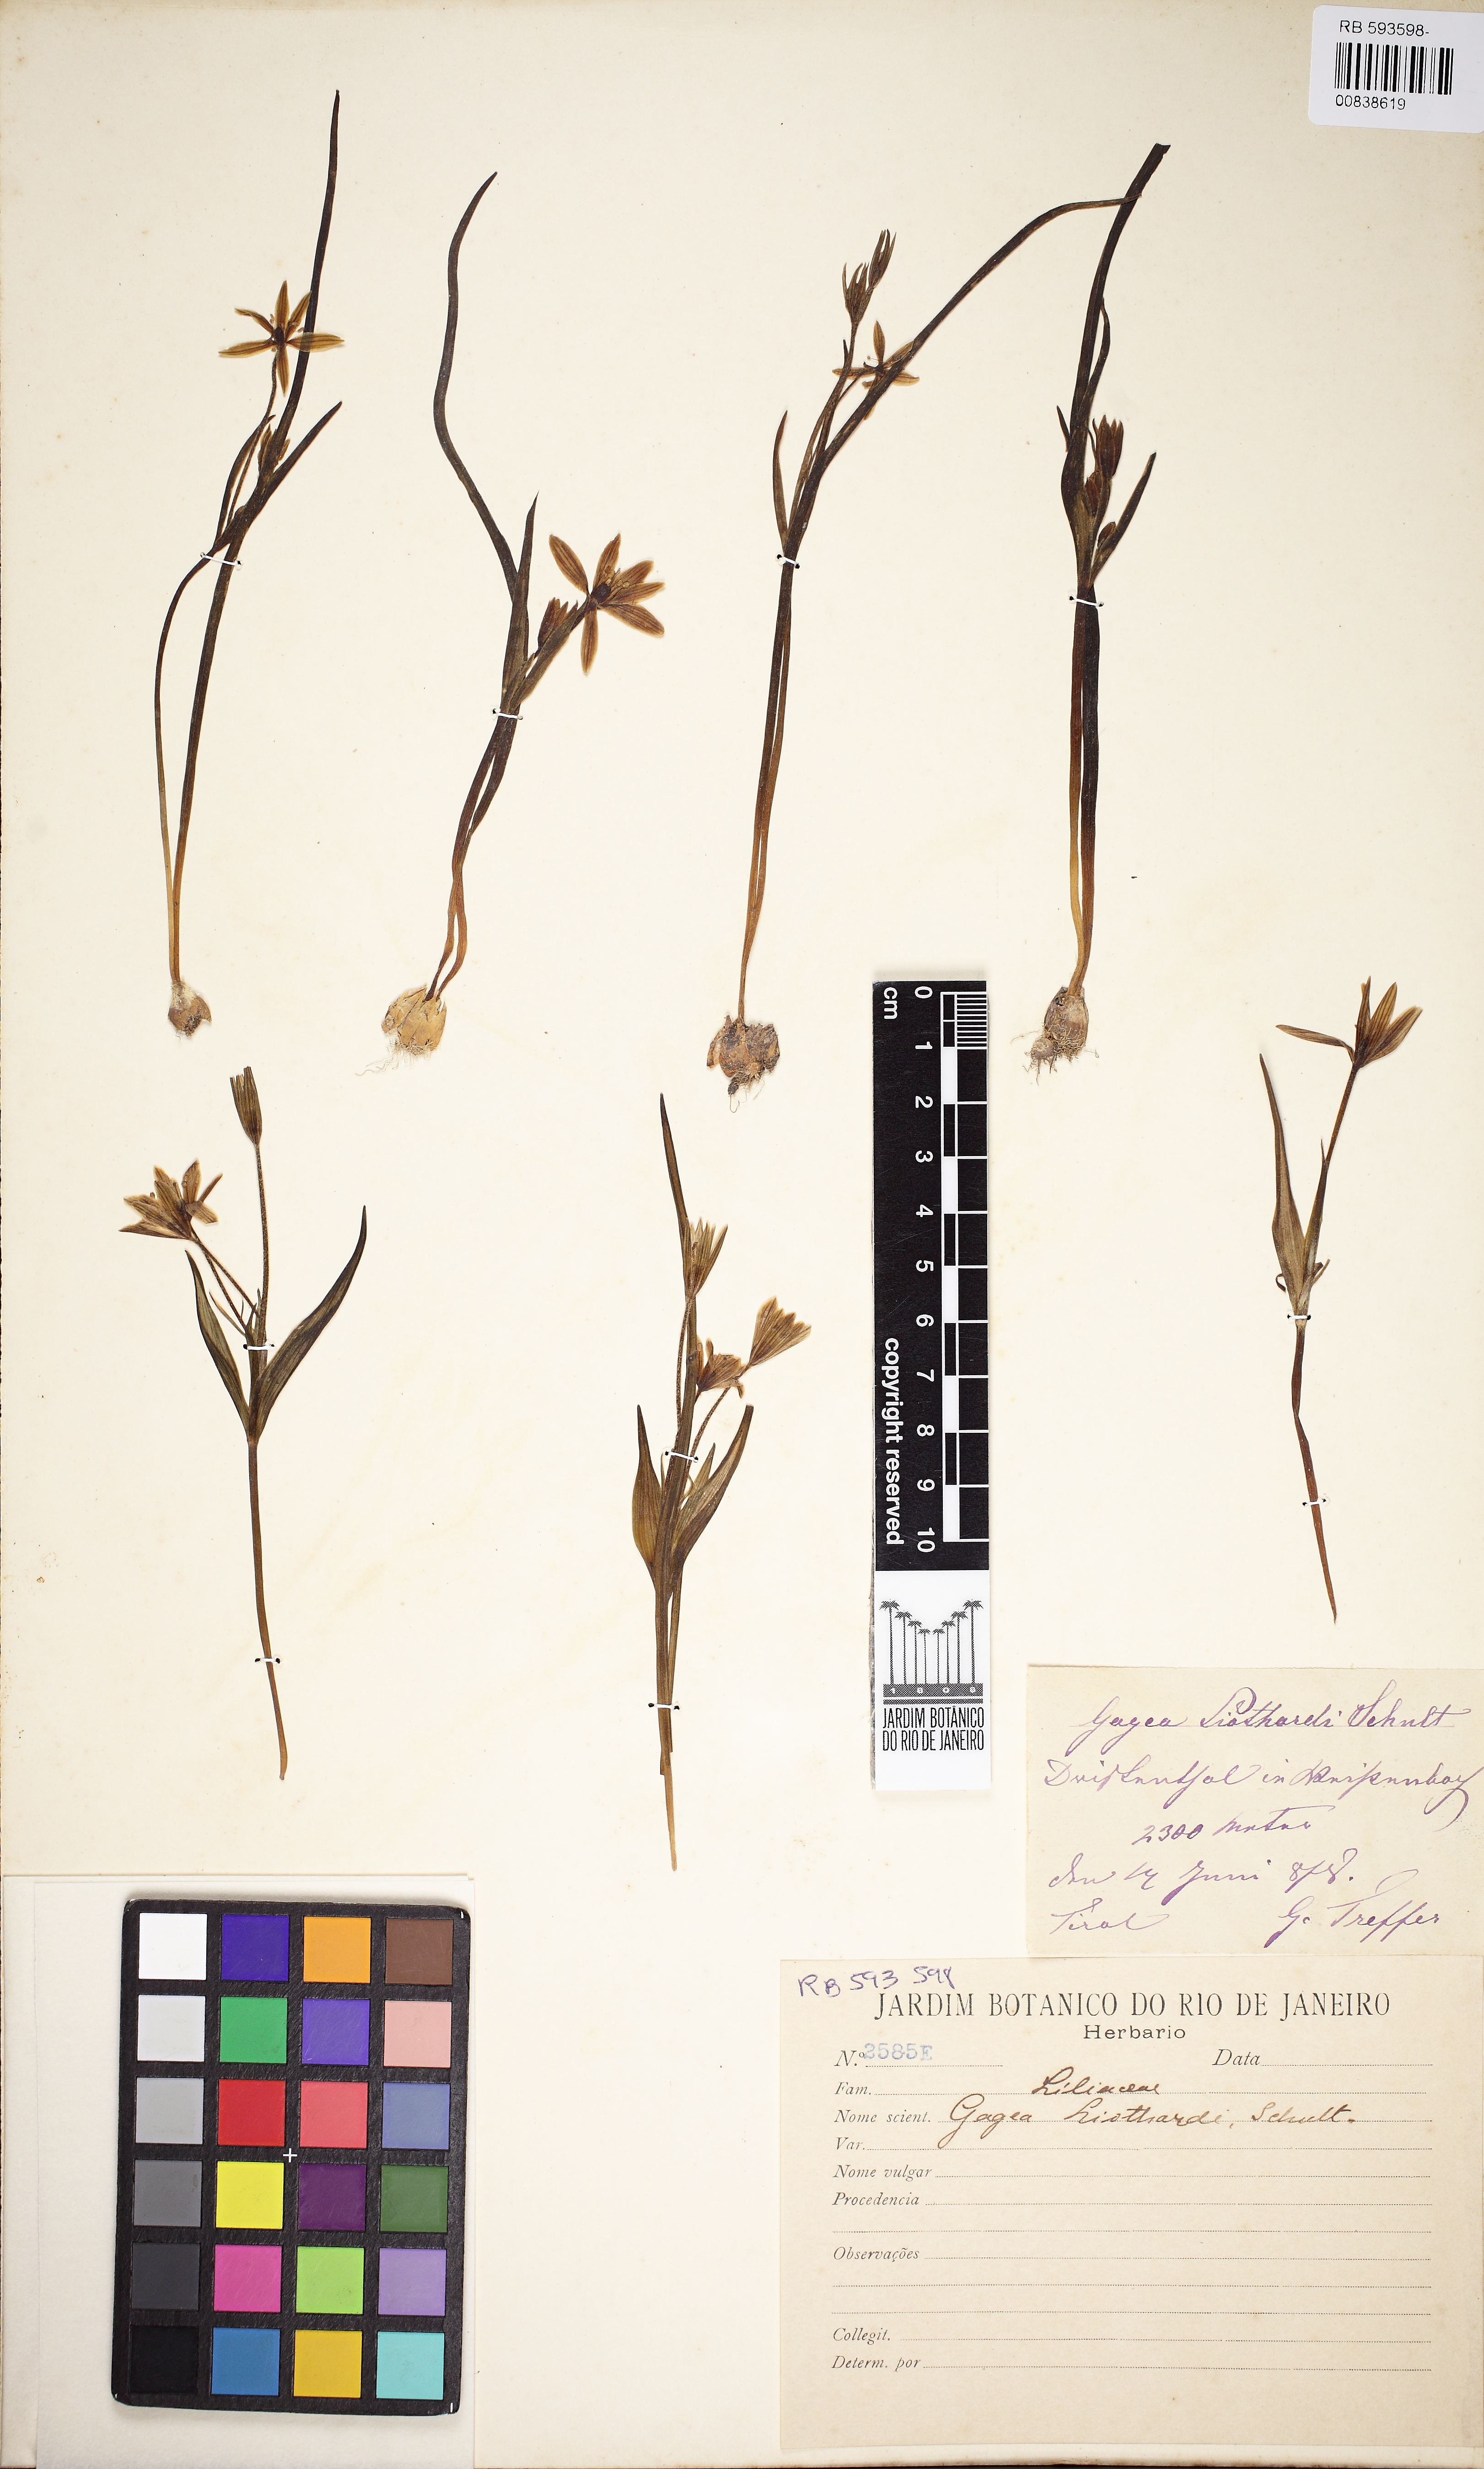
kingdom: Plantae
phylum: Tracheophyta
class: Liliopsida
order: Liliales
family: Liliaceae
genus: Gagea
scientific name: Gagea fragifera
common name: Lily
